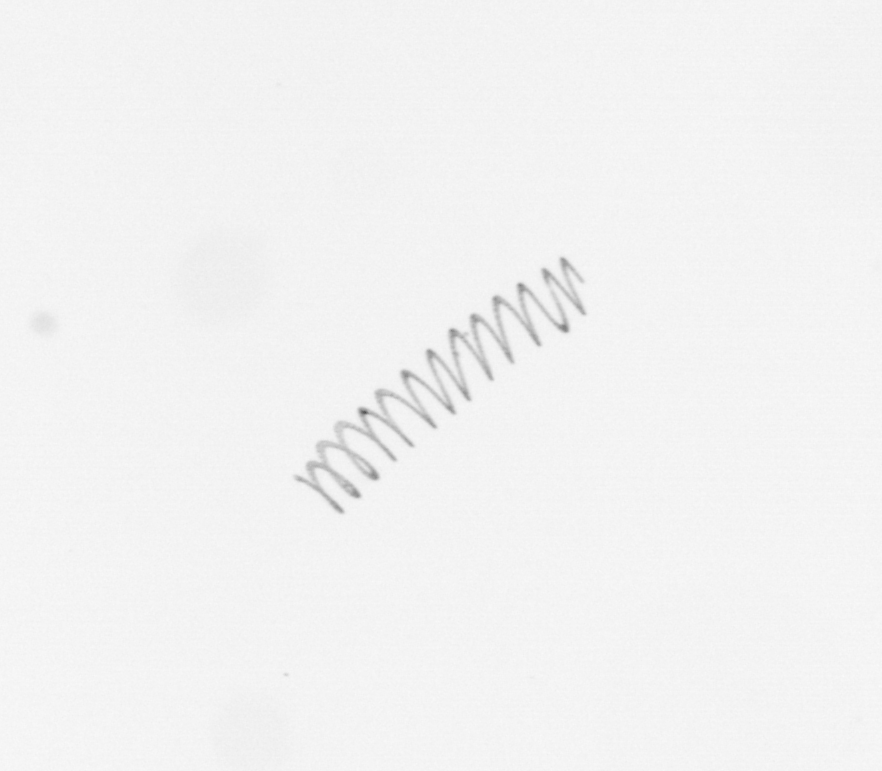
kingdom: Chromista
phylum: Ochrophyta
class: Bacillariophyceae
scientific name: Bacillariophyceae
